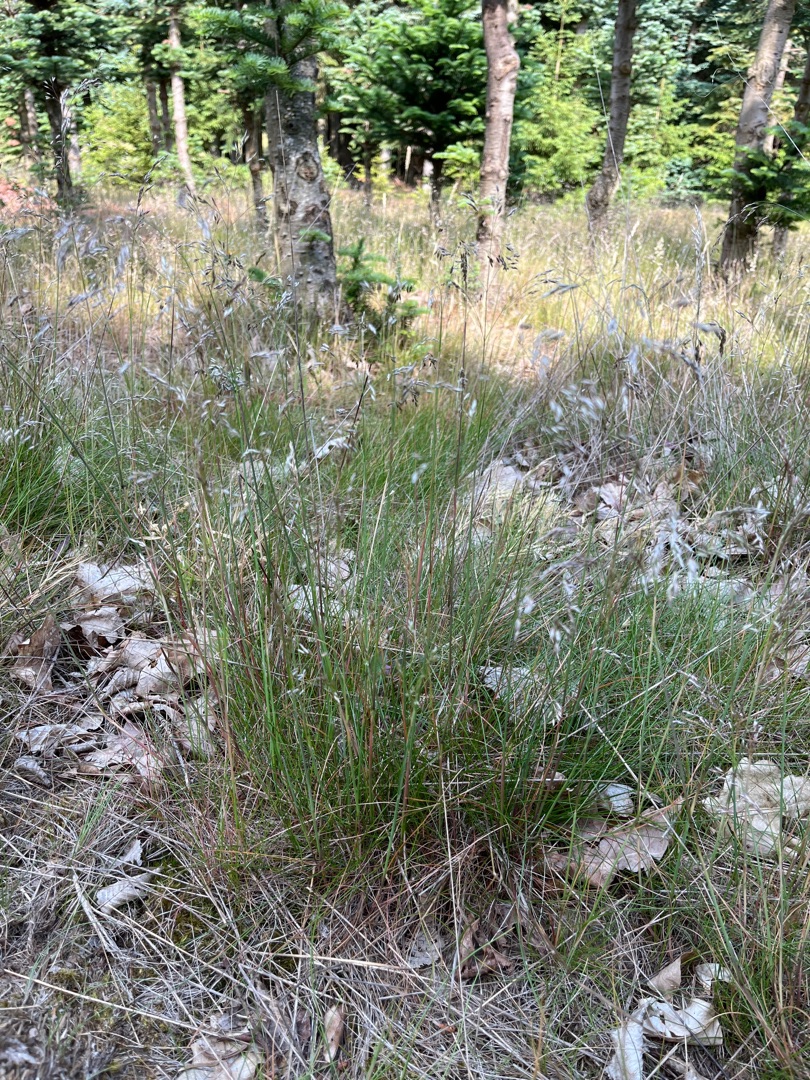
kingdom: Plantae
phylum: Tracheophyta
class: Liliopsida
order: Poales
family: Poaceae
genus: Avenella
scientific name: Avenella flexuosa
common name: Bølget bunke
